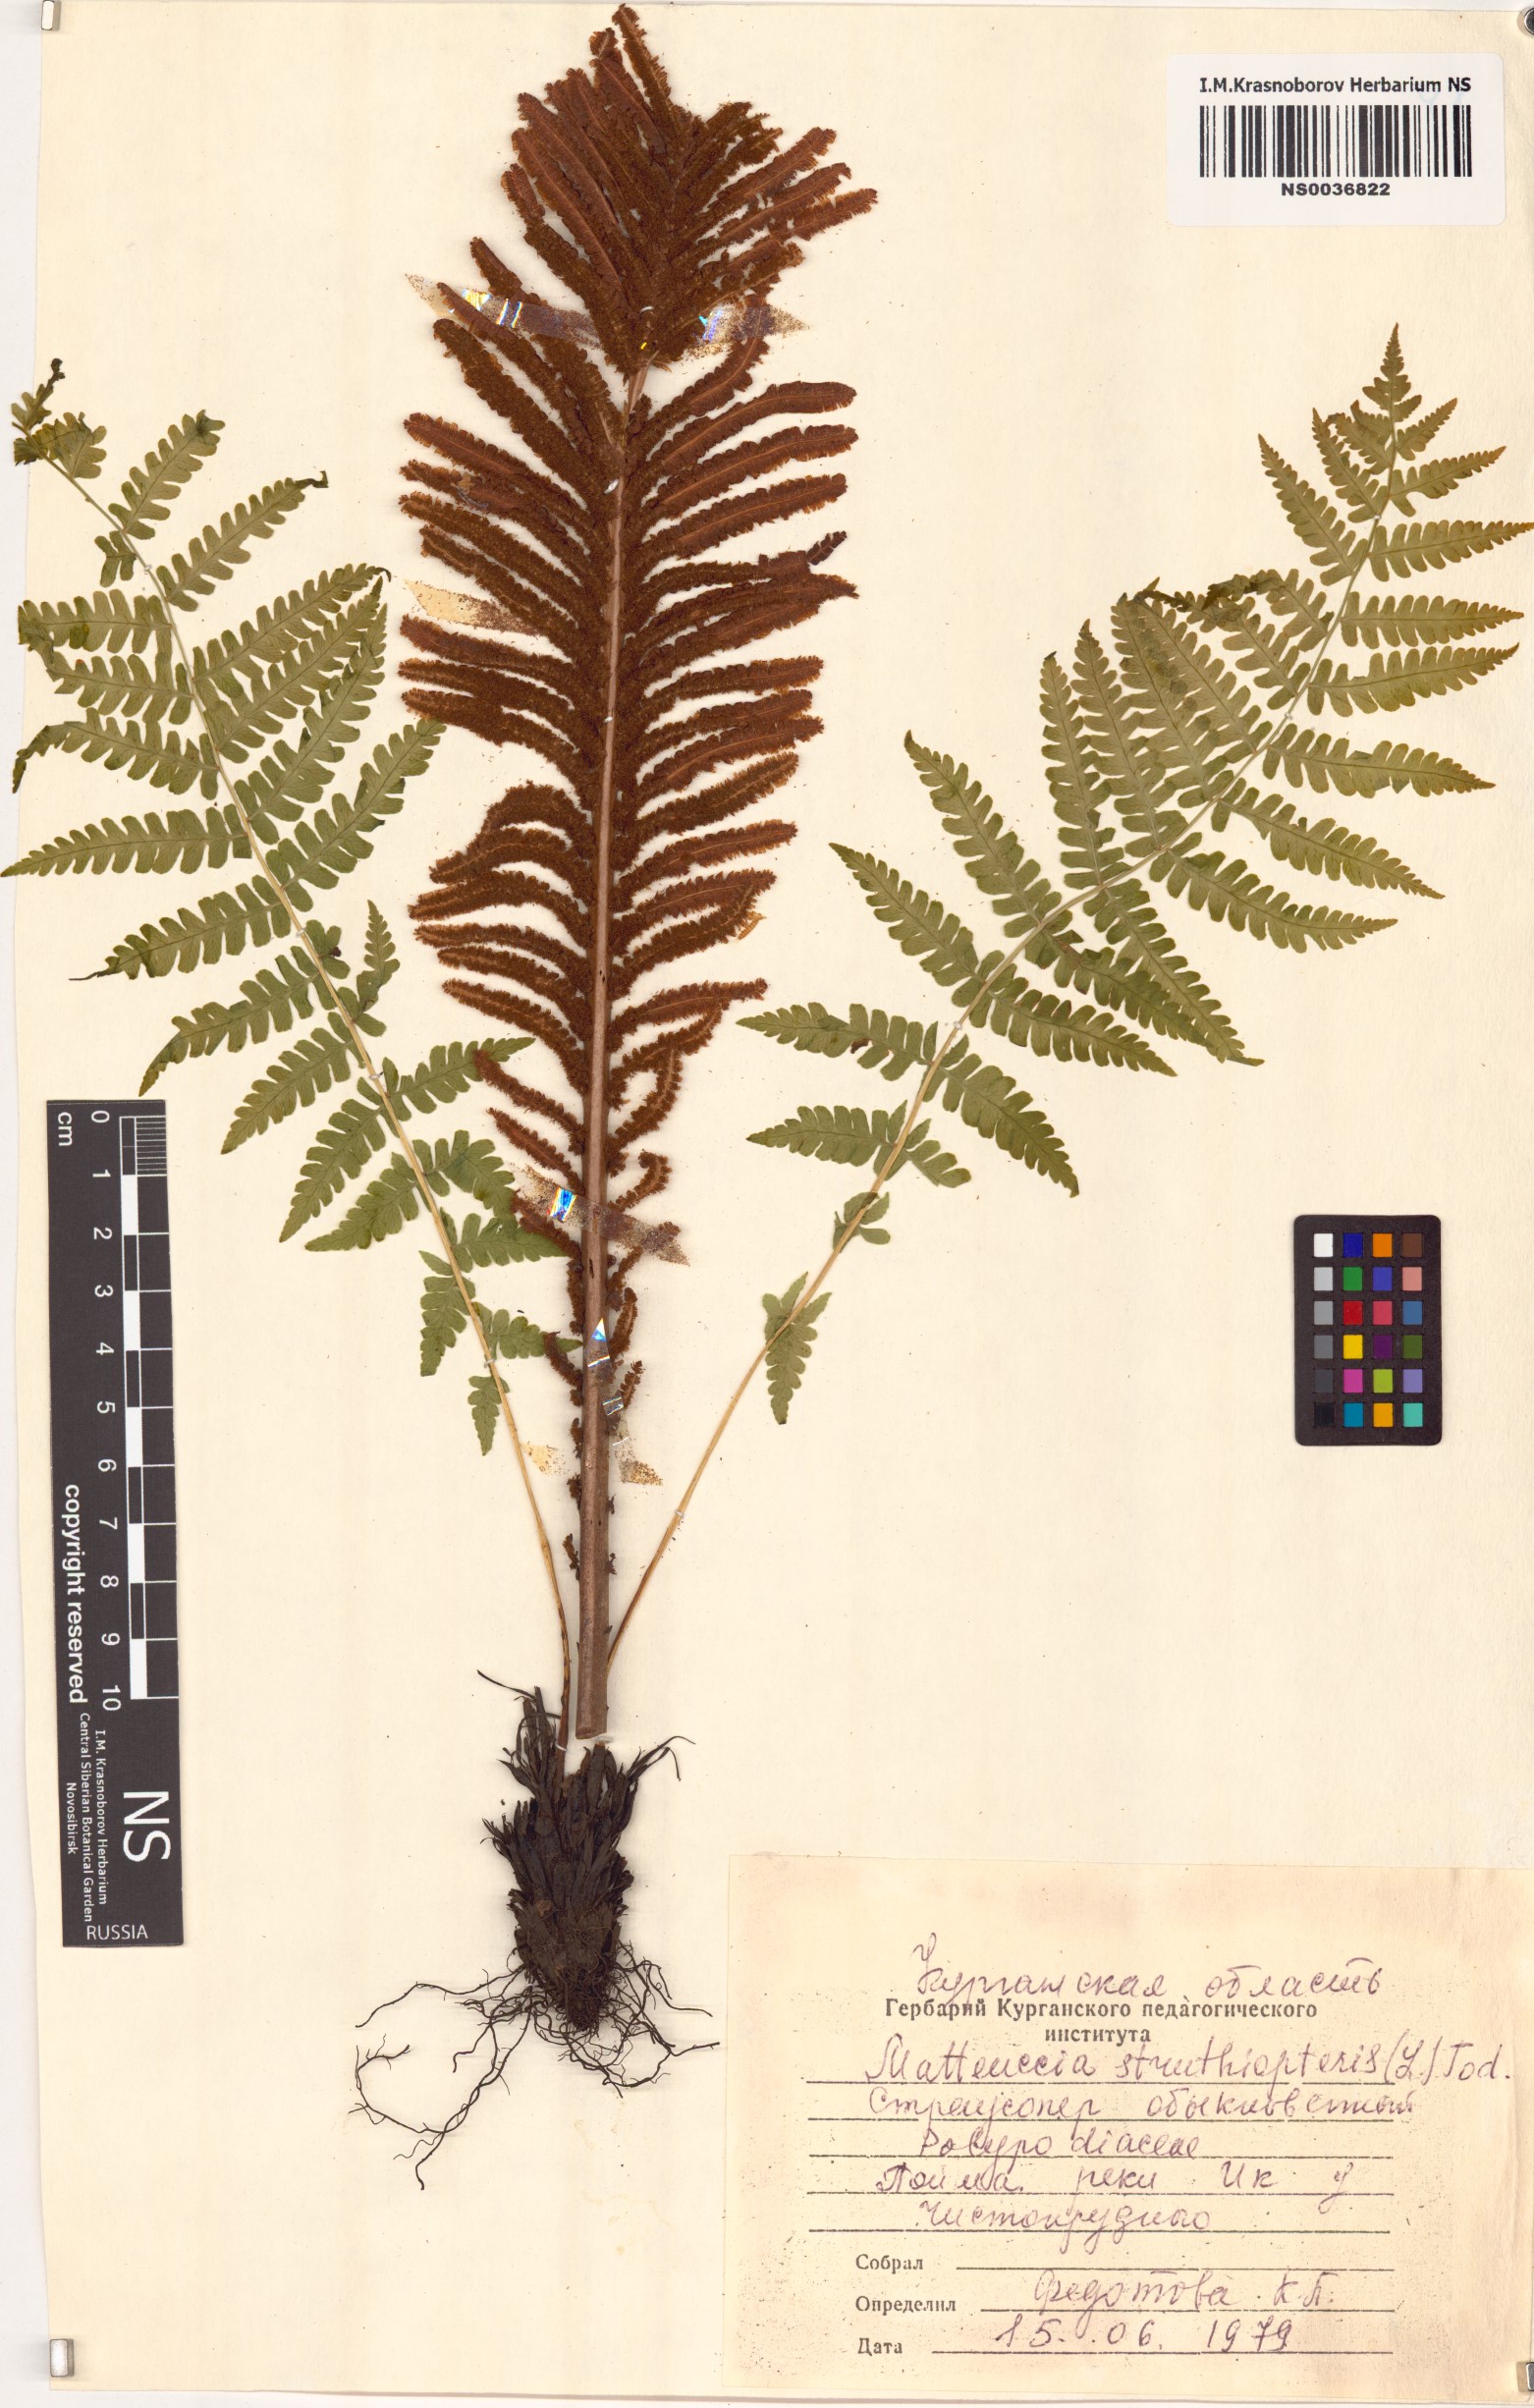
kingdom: Plantae
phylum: Tracheophyta
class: Polypodiopsida
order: Polypodiales
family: Onocleaceae
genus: Matteuccia
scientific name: Matteuccia struthiopteris
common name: Ostrich fern
